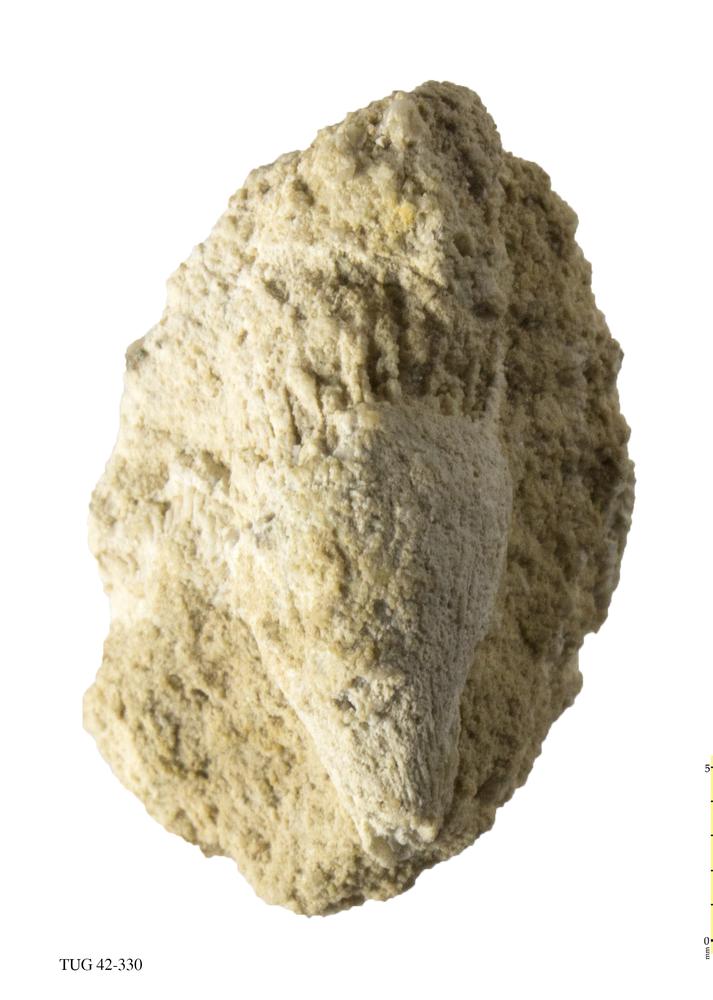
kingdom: Animalia
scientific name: Animalia
